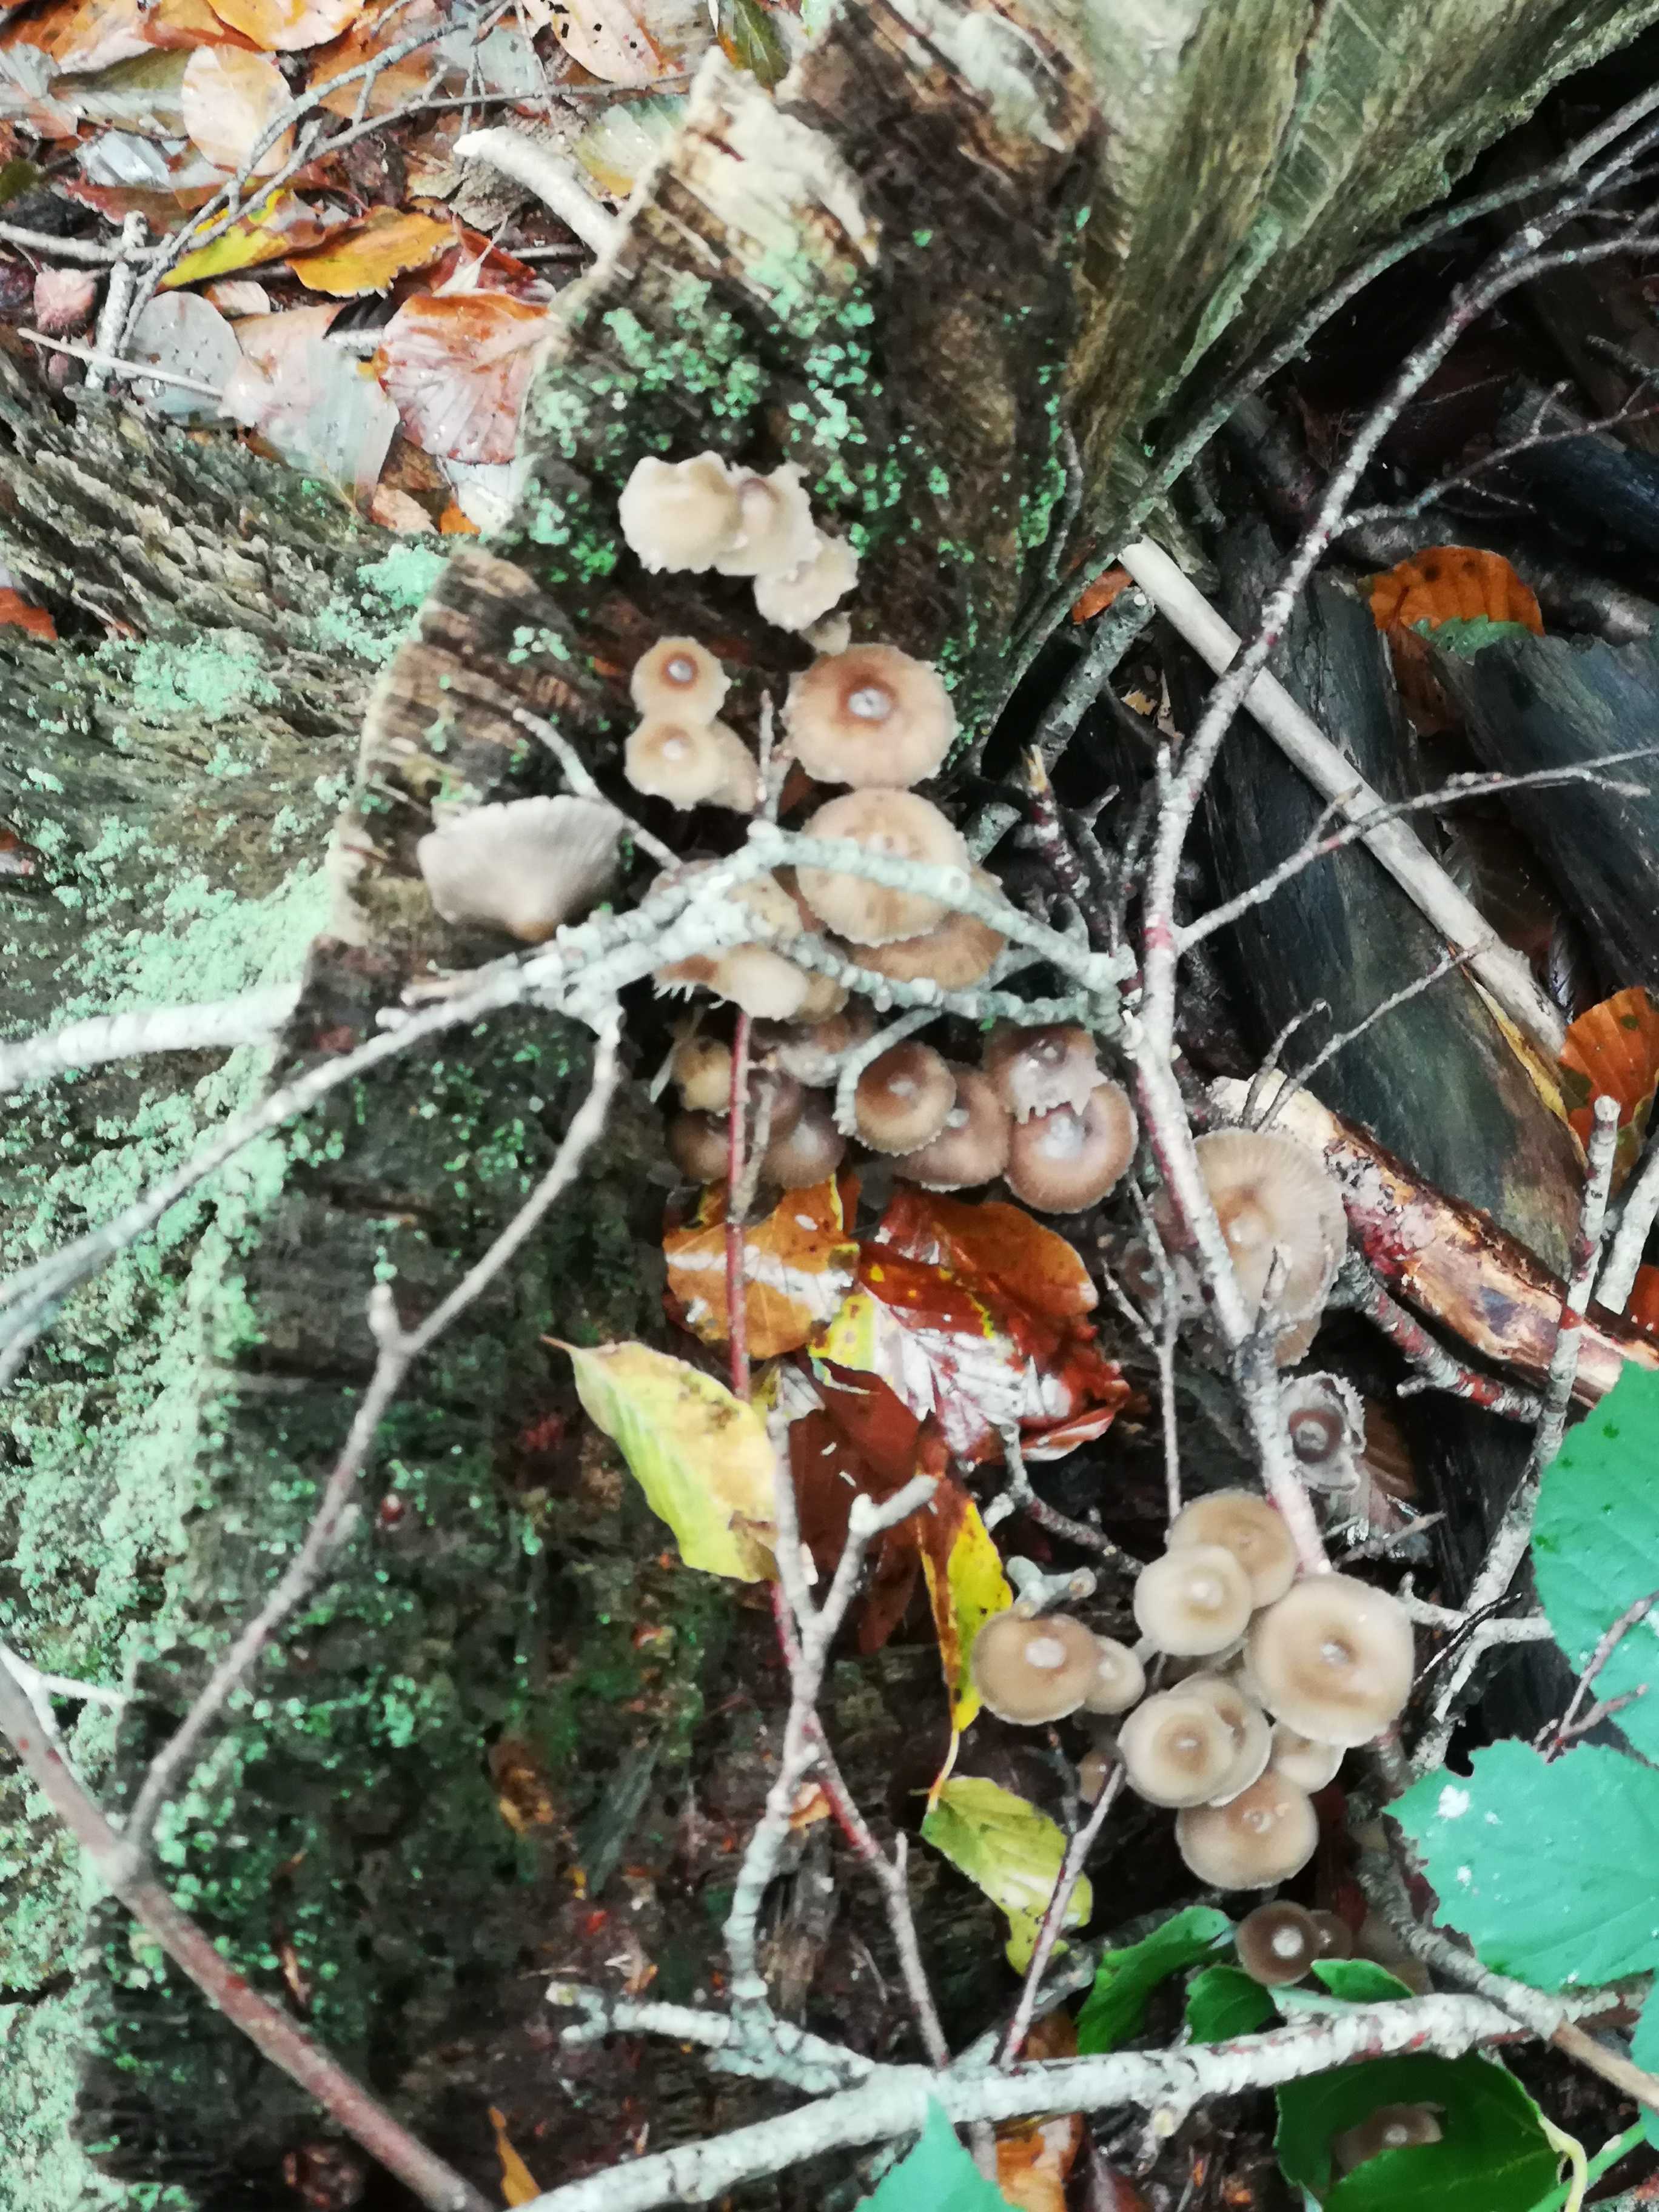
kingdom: Fungi
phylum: Basidiomycota
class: Agaricomycetes
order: Agaricales
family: Mycenaceae
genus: Mycena
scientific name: Mycena inclinata
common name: nikkende huesvamp
